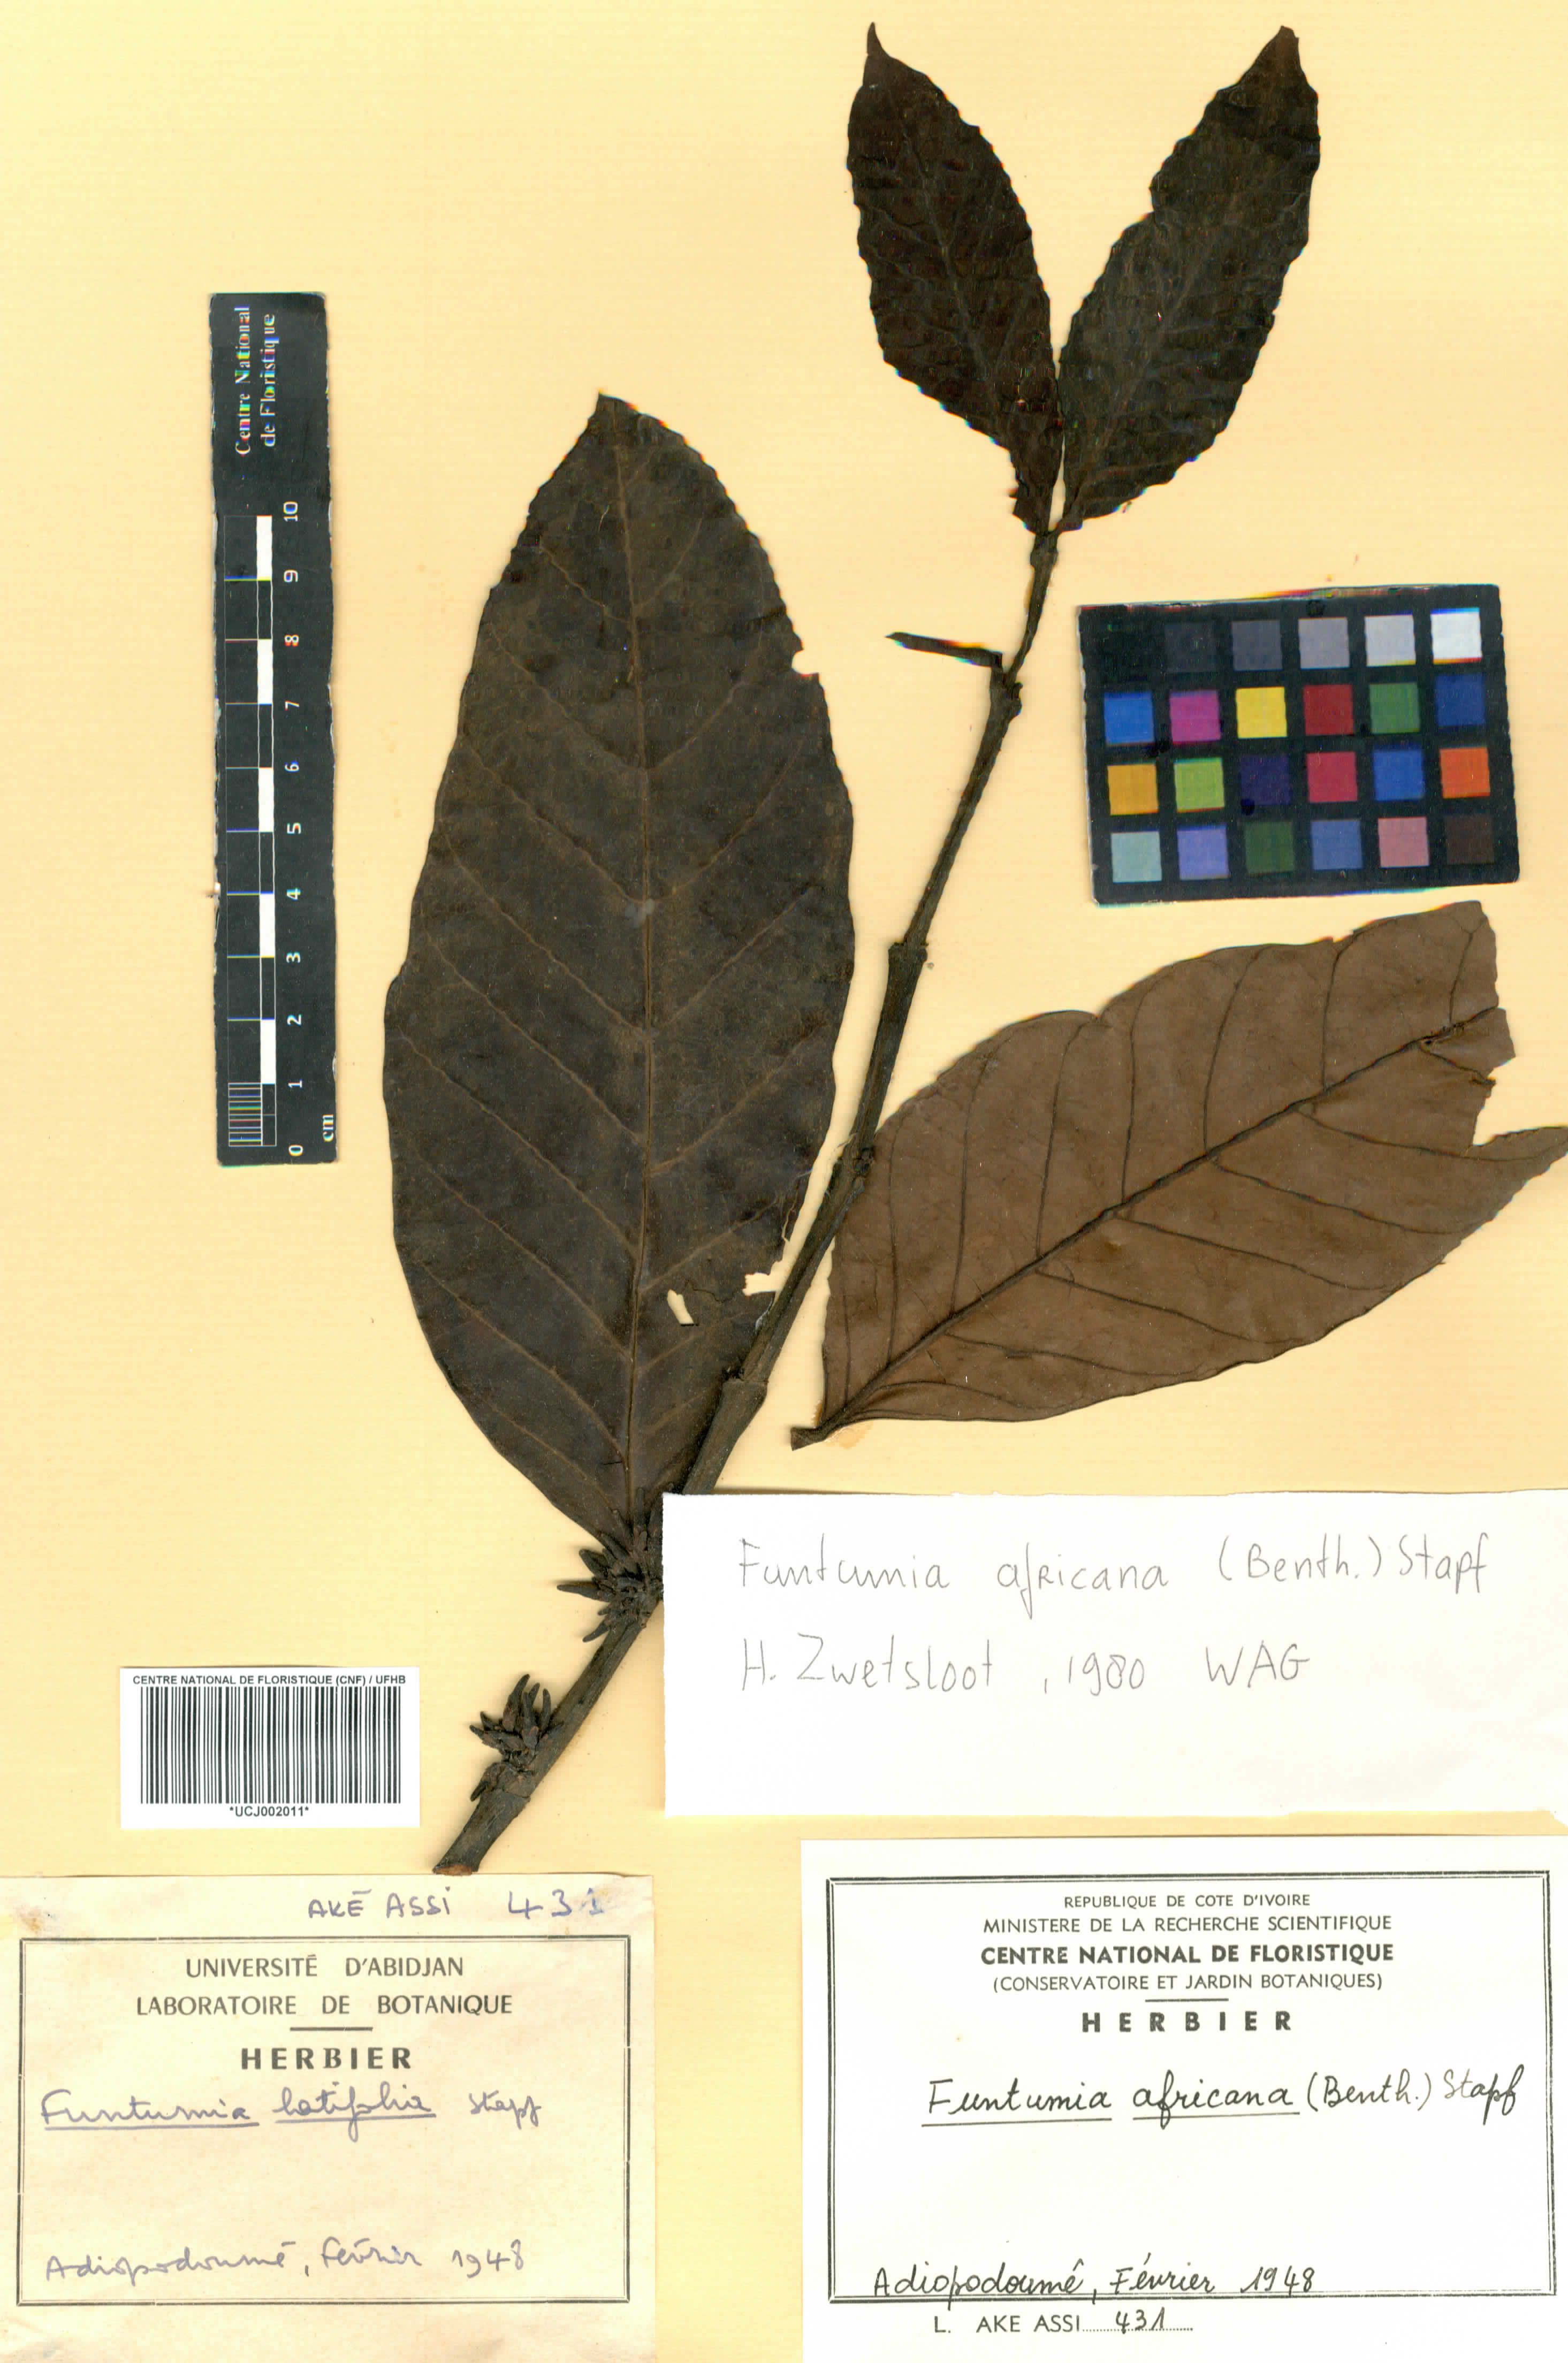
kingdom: Plantae
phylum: Tracheophyta
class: Magnoliopsida
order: Gentianales
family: Apocynaceae
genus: Funtumia
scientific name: Funtumia africana
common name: Lagos-rubber
